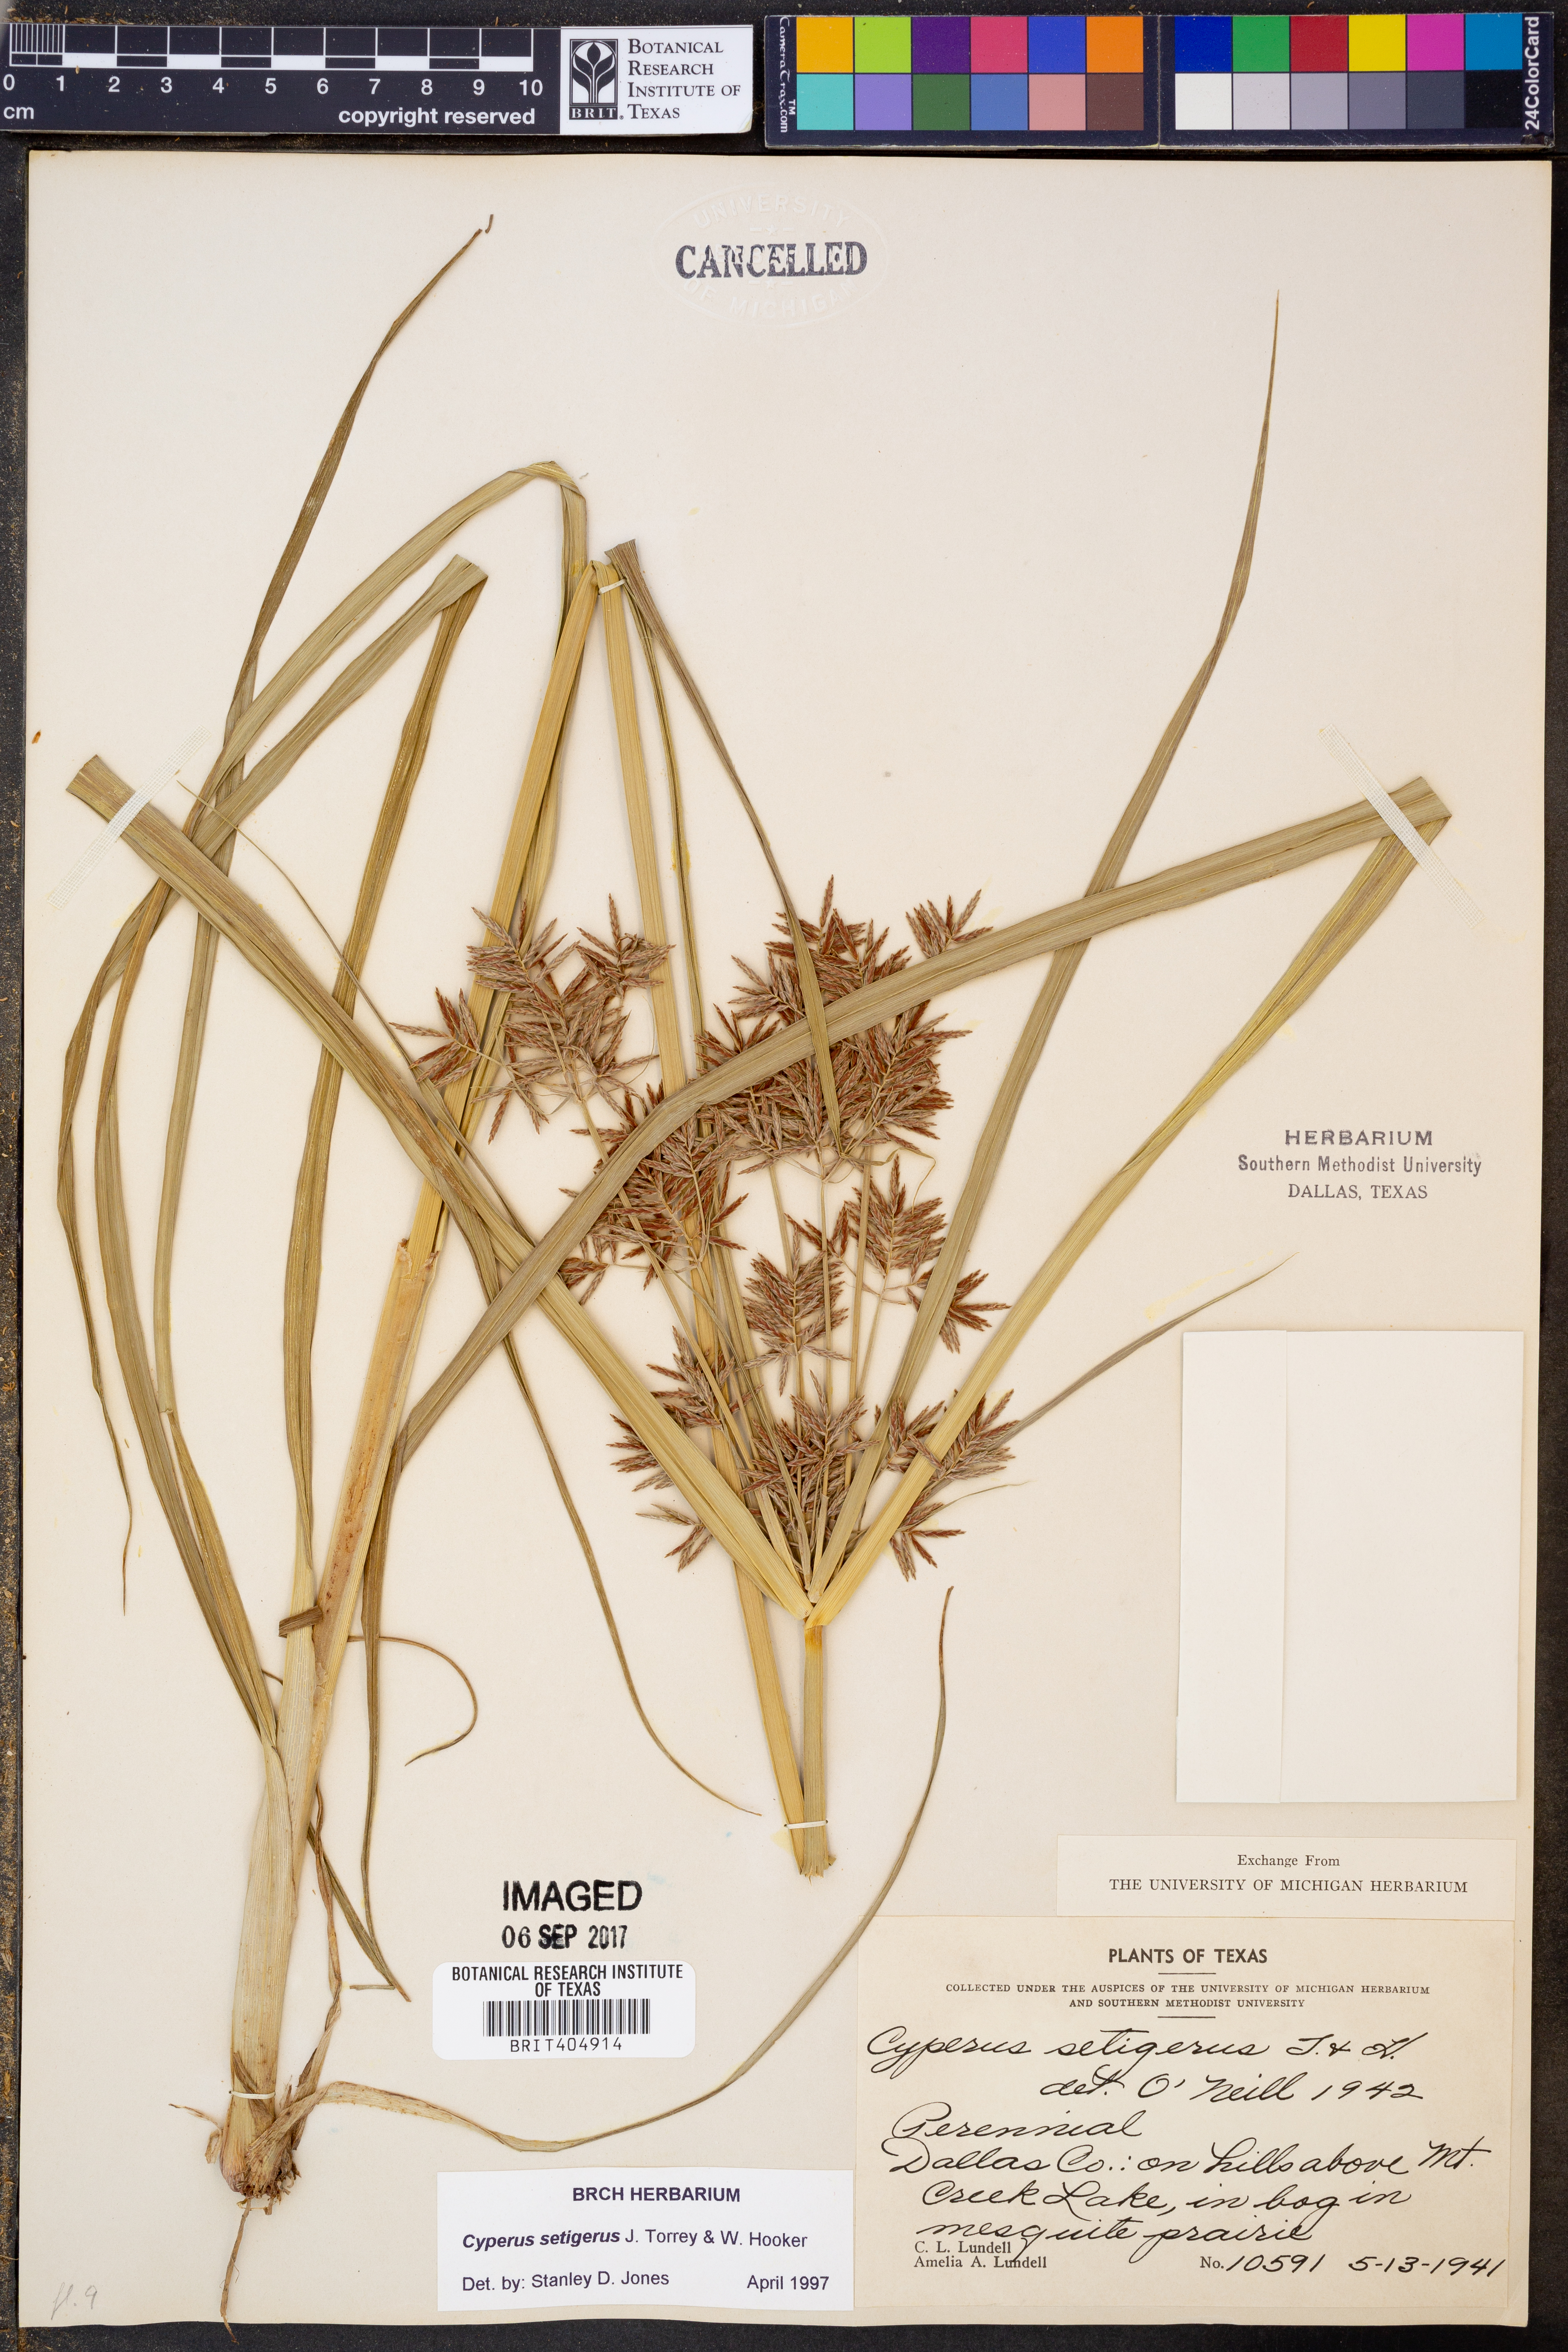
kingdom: Plantae
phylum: Tracheophyta
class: Liliopsida
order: Poales
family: Cyperaceae
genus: Cyperus
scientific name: Cyperus setigerus
